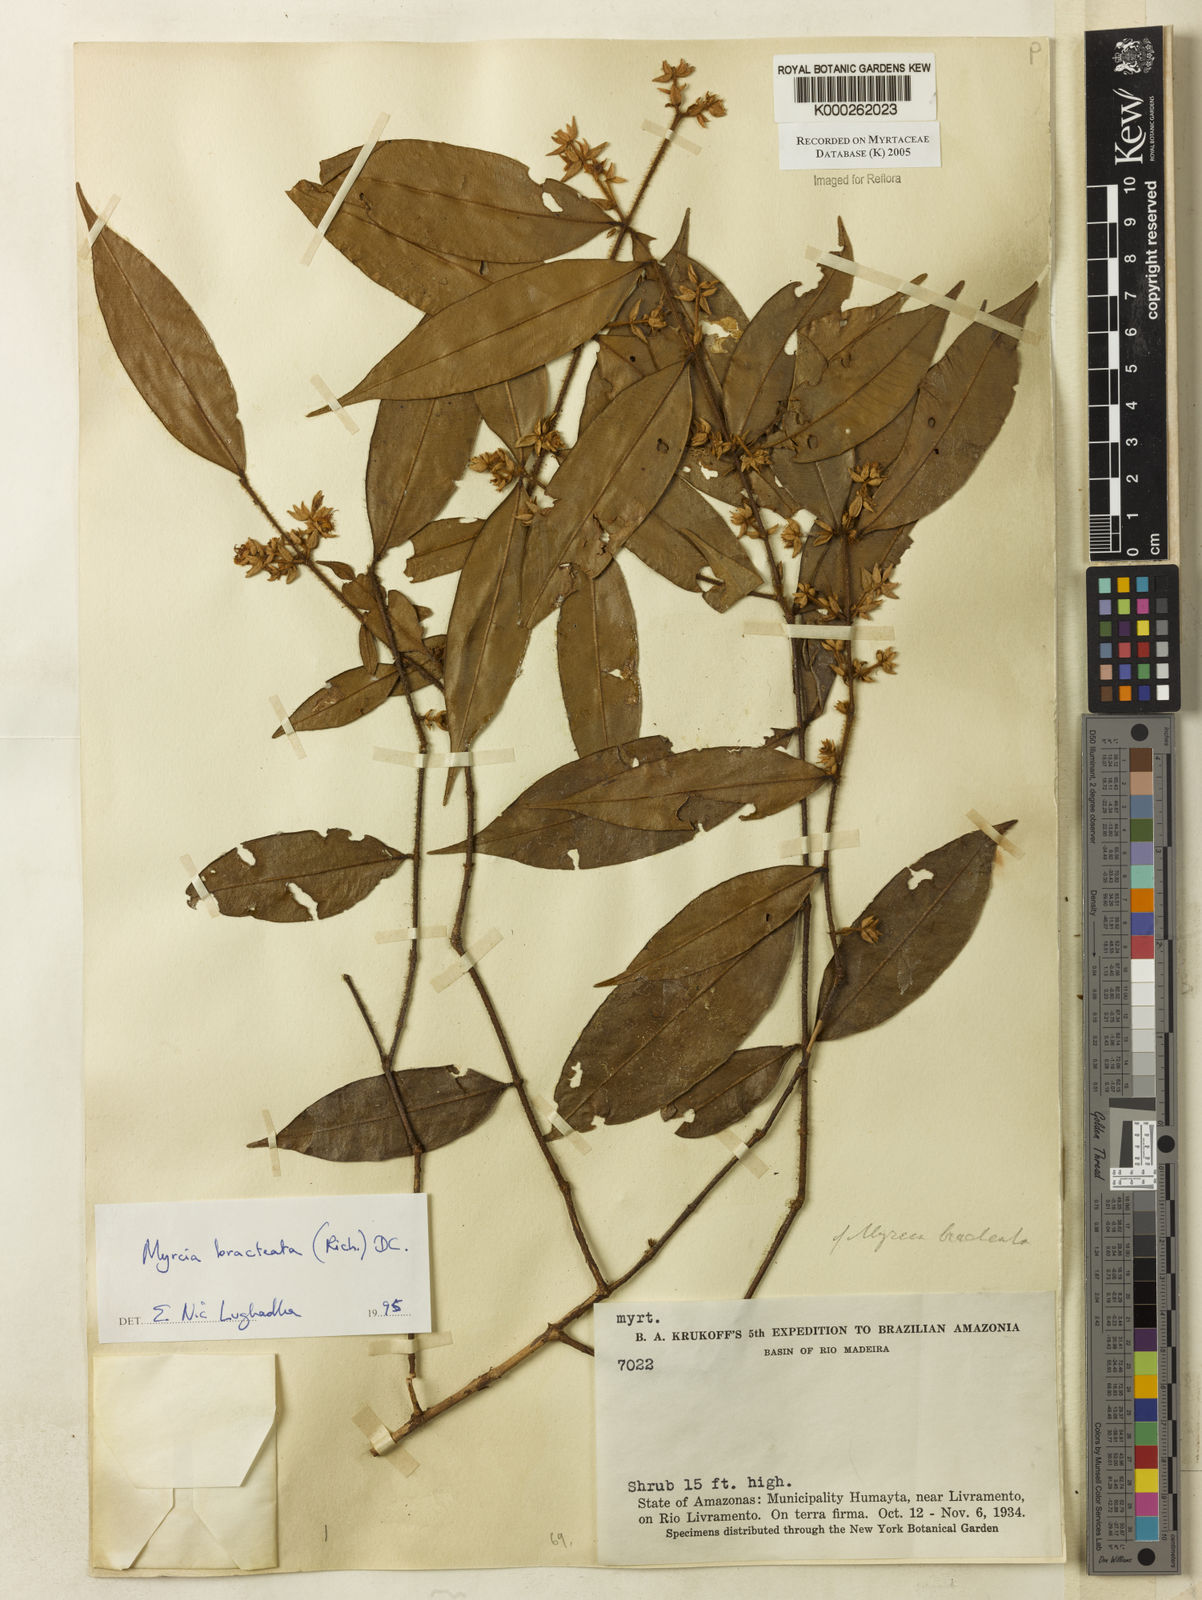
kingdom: Plantae
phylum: Tracheophyta
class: Magnoliopsida
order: Myrtales
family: Myrtaceae
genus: Myrcia
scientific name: Myrcia bracteata
